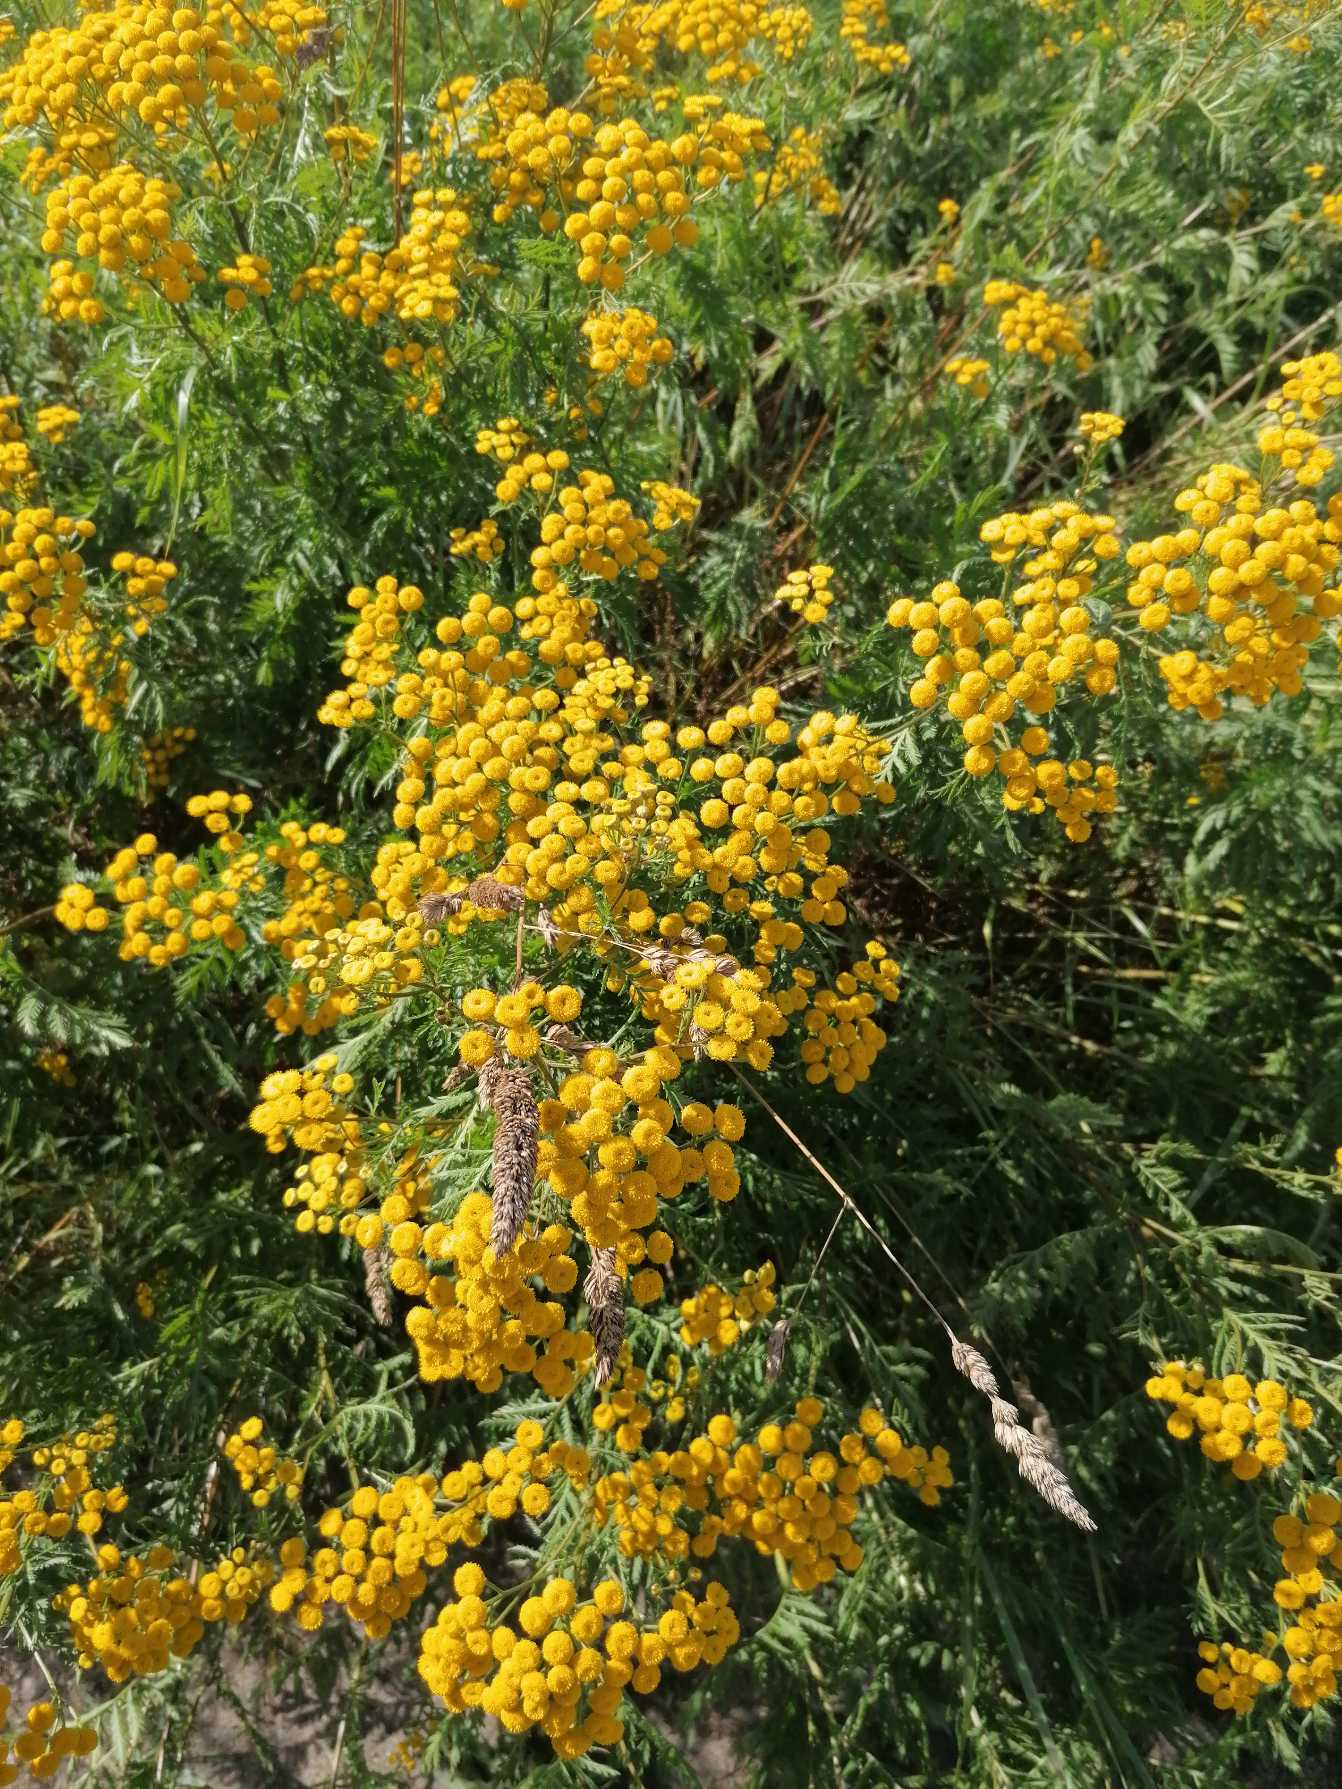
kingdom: Plantae
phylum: Tracheophyta
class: Magnoliopsida
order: Asterales
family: Asteraceae
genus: Tanacetum
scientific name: Tanacetum vulgare
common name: Rejnfan
